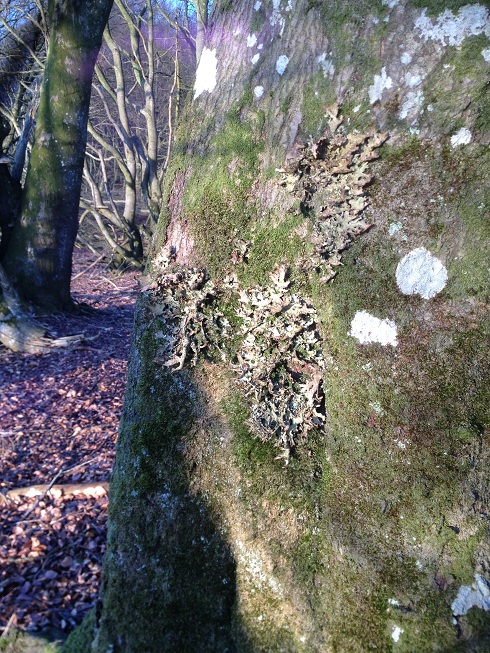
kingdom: Fungi
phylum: Ascomycota
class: Lecanoromycetes
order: Peltigerales
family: Lobariaceae
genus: Lobaria
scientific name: Lobaria pulmonaria
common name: almindelig lungelav
